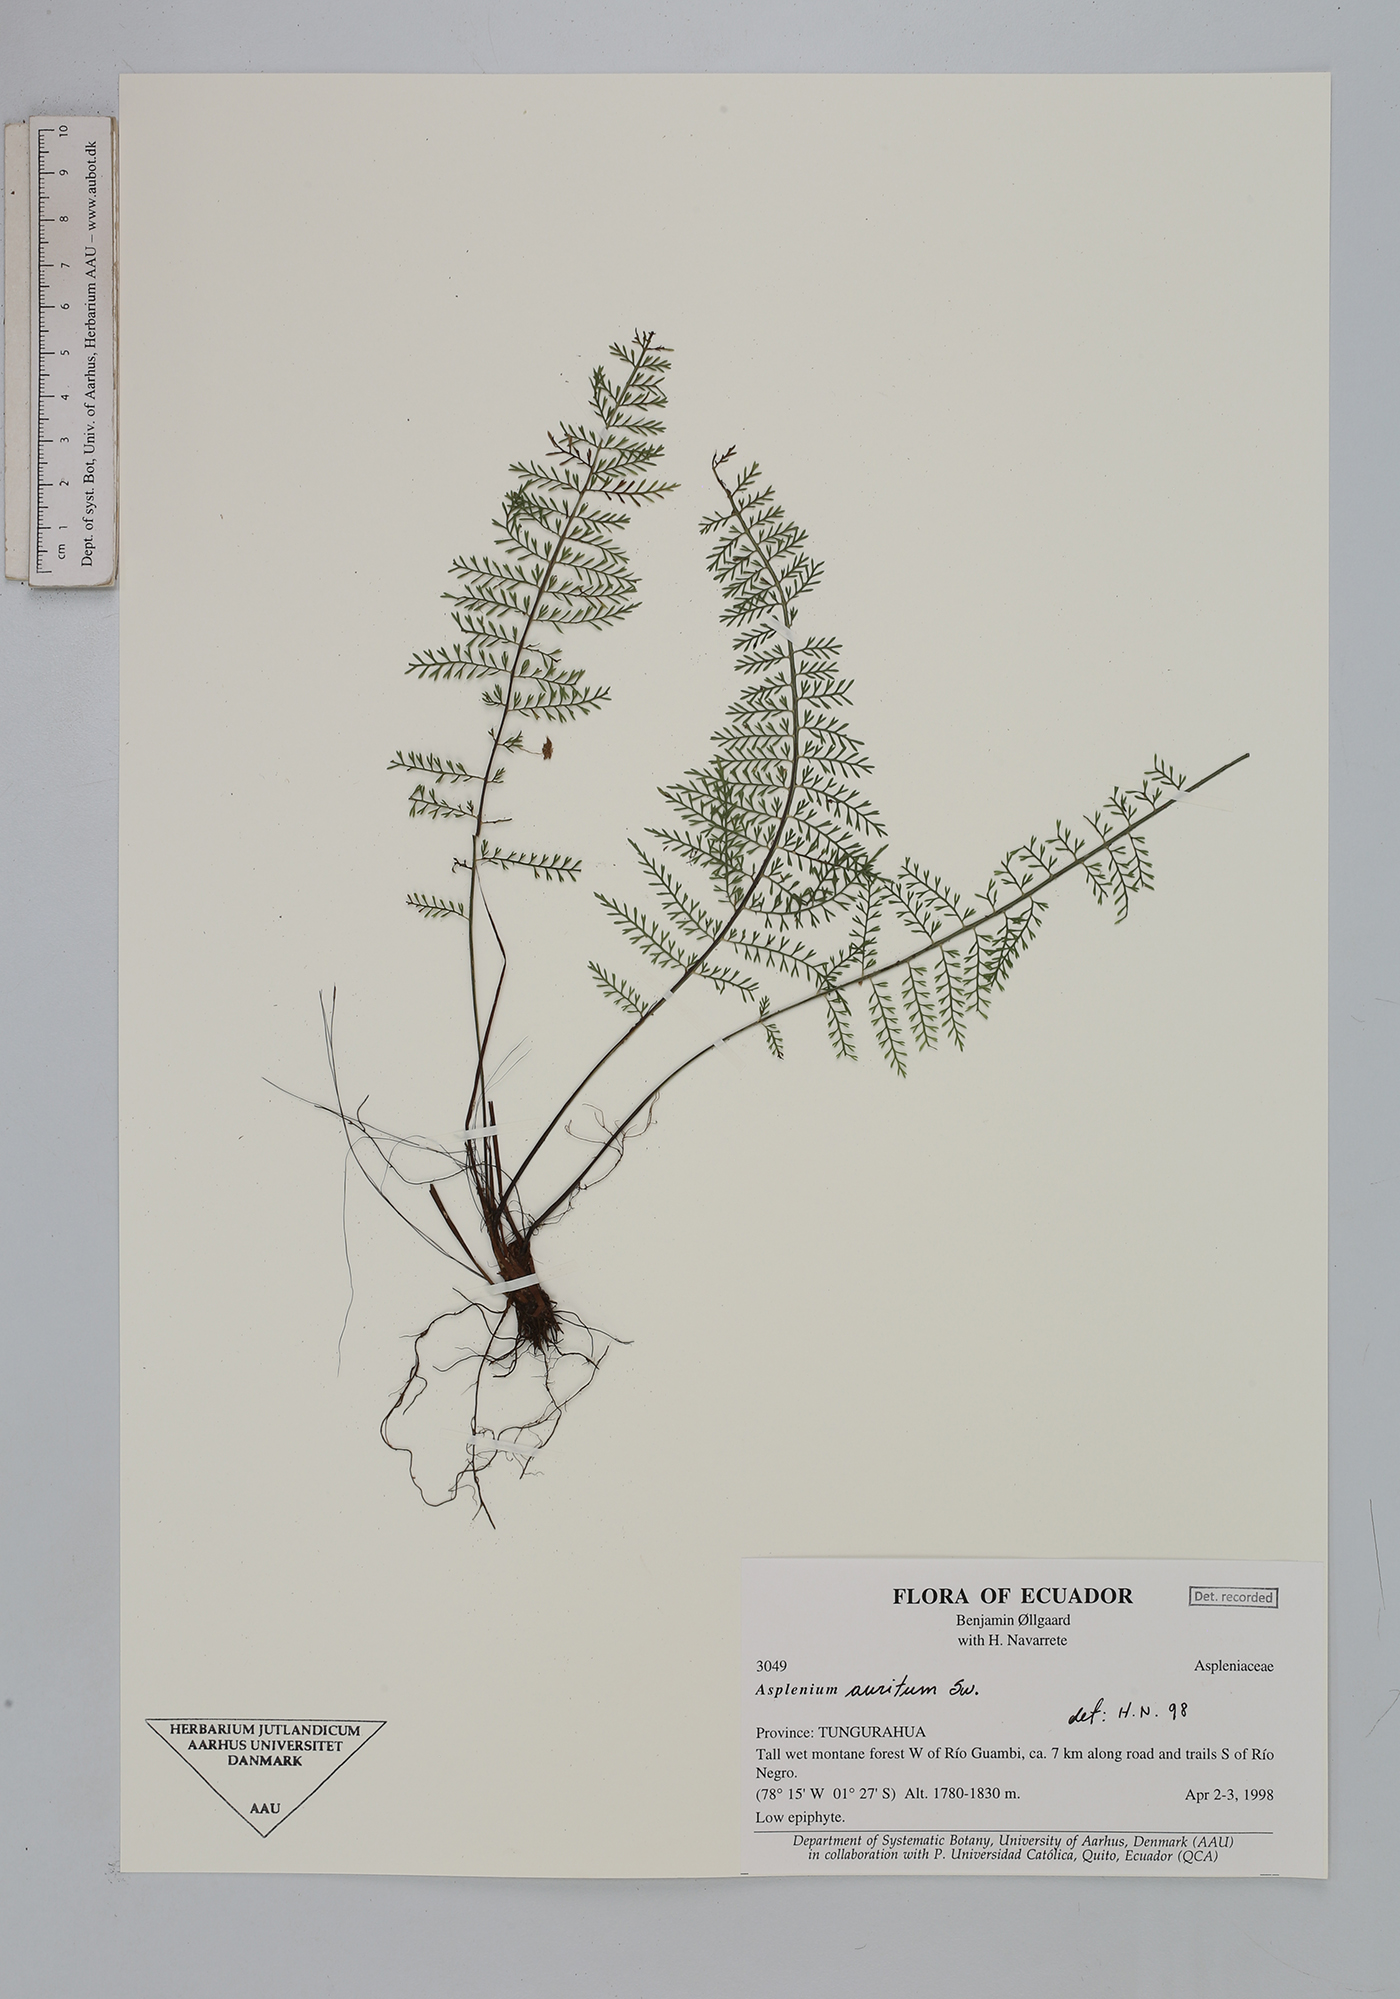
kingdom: Plantae
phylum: Tracheophyta
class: Polypodiopsida
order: Polypodiales
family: Aspleniaceae
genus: Asplenium
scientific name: Asplenium auritum
